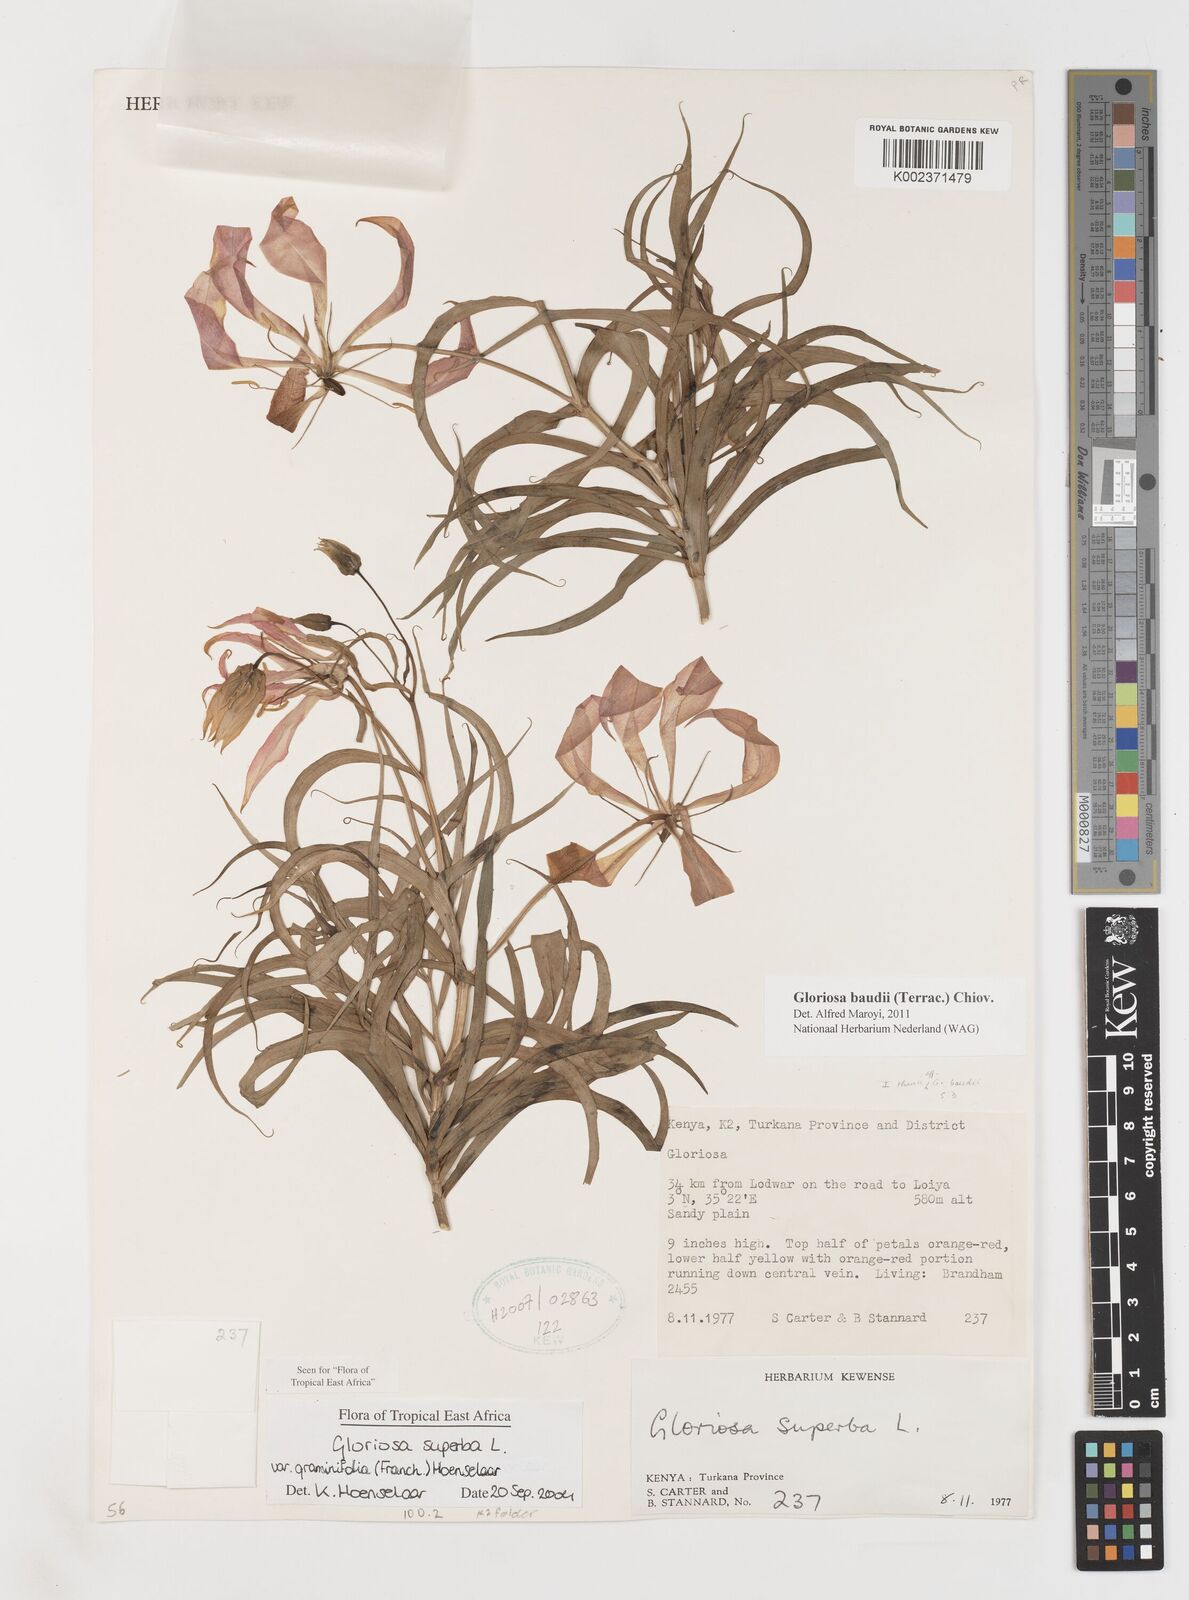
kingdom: Plantae
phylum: Tracheophyta
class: Liliopsida
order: Liliales
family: Colchicaceae
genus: Gloriosa
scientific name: Gloriosa baudii
